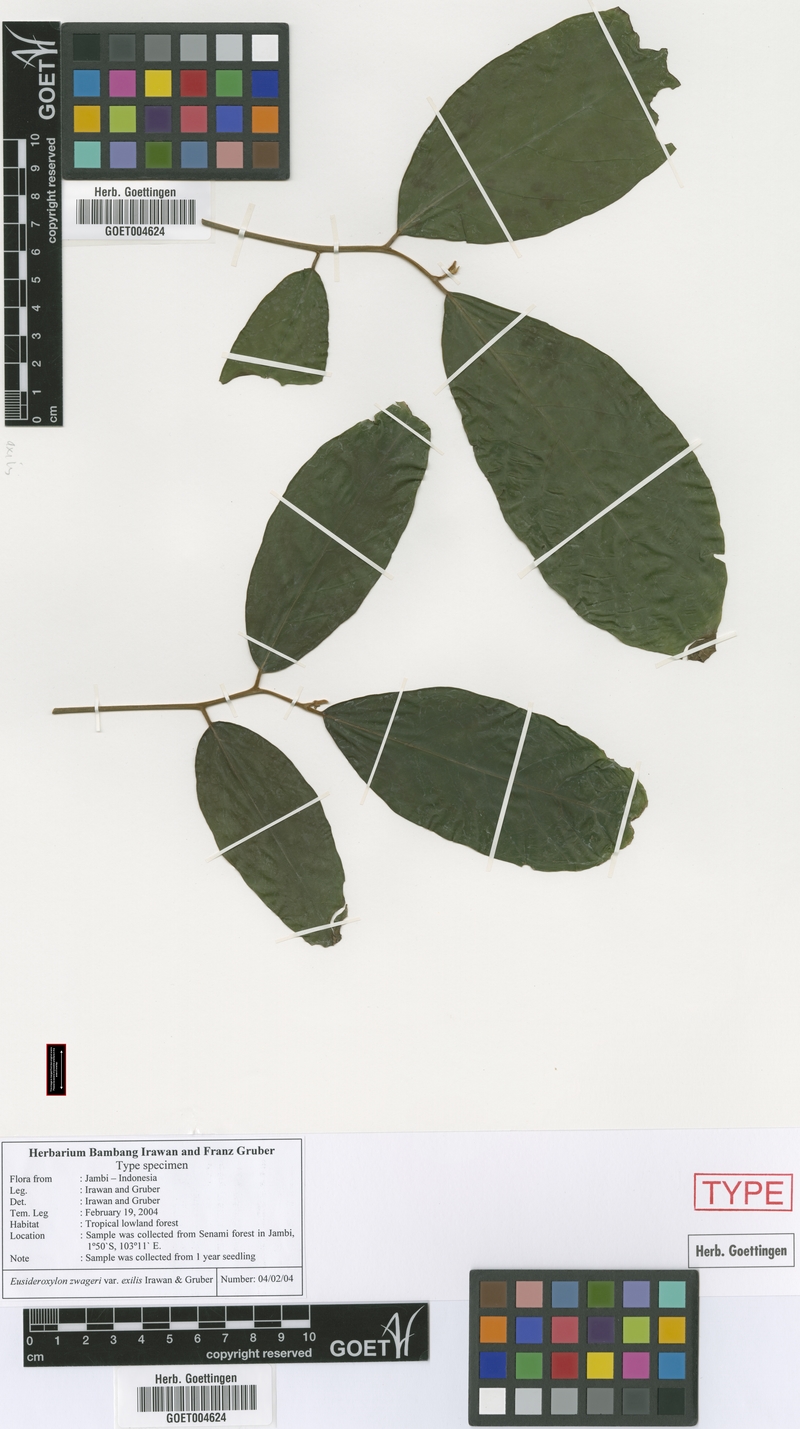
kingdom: Plantae
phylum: Tracheophyta
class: Magnoliopsida
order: Laurales
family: Lauraceae
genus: Eusideroxylon
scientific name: Eusideroxylon zwageri
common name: Borneo ironwood
